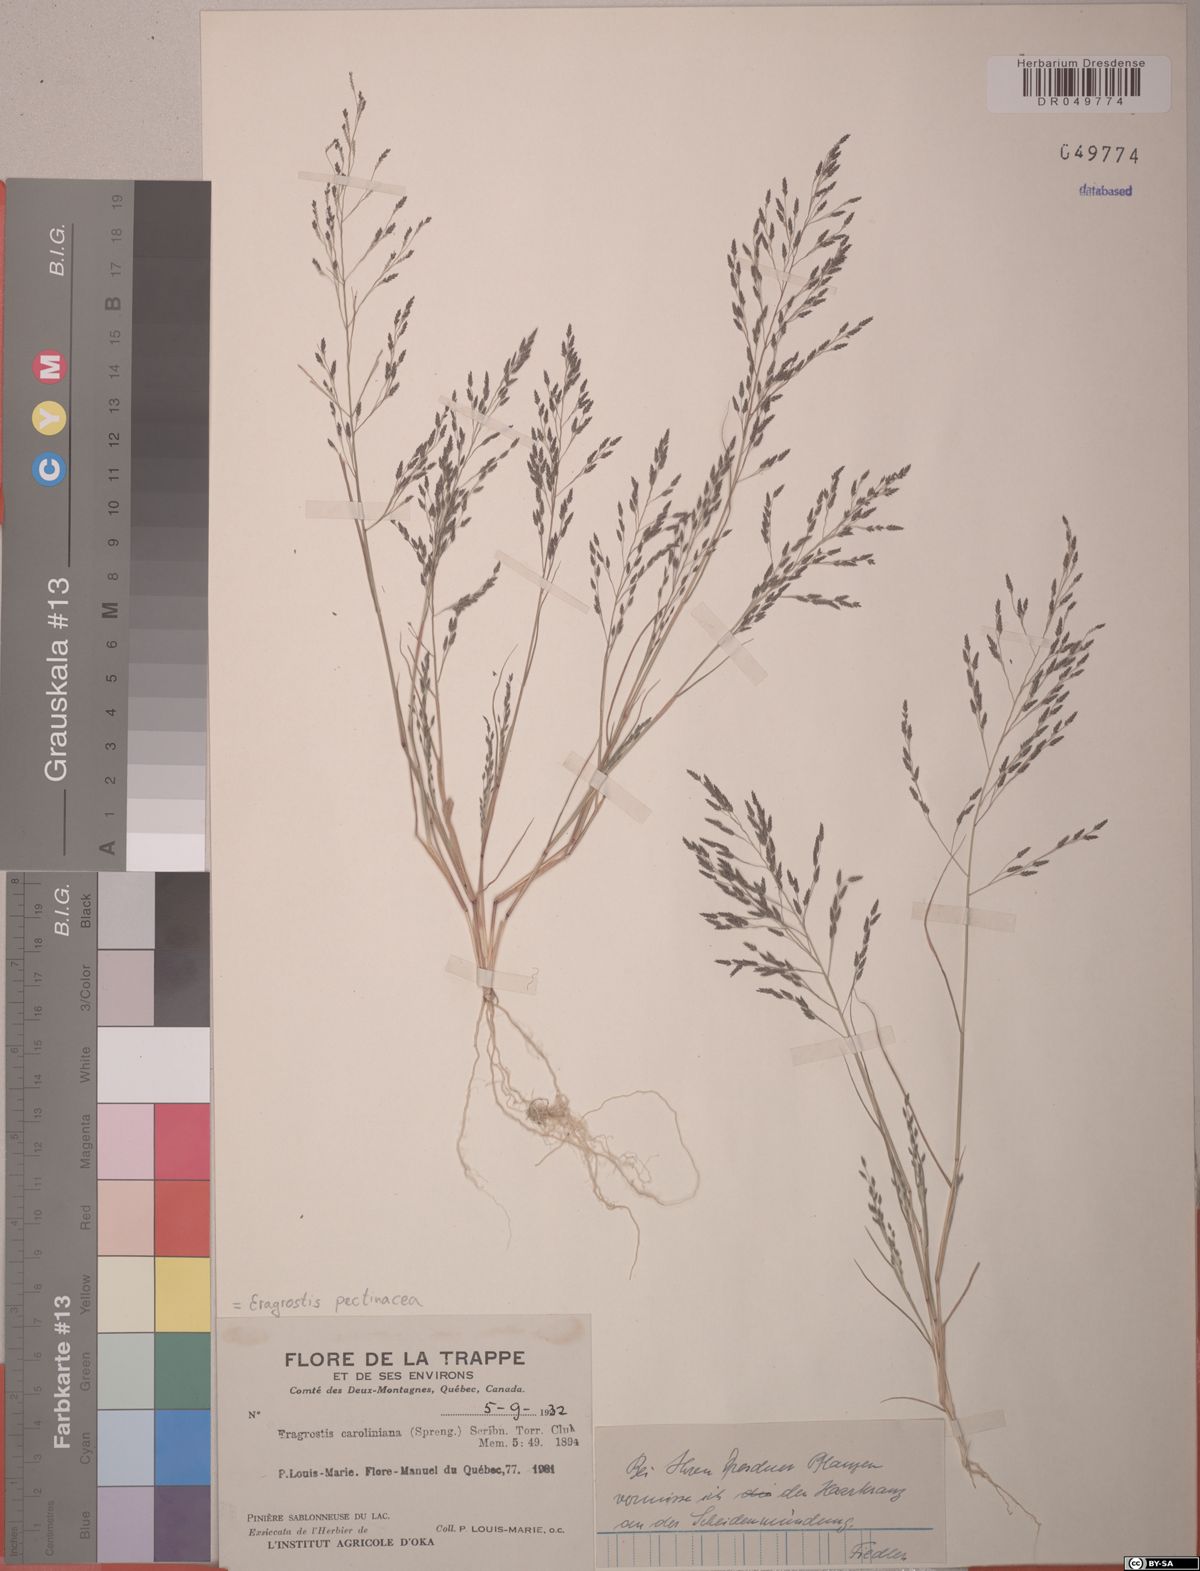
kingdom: Plantae
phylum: Tracheophyta
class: Liliopsida
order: Poales
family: Poaceae
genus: Eragrostis
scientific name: Eragrostis pectinacea
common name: Tufted lovegrass
